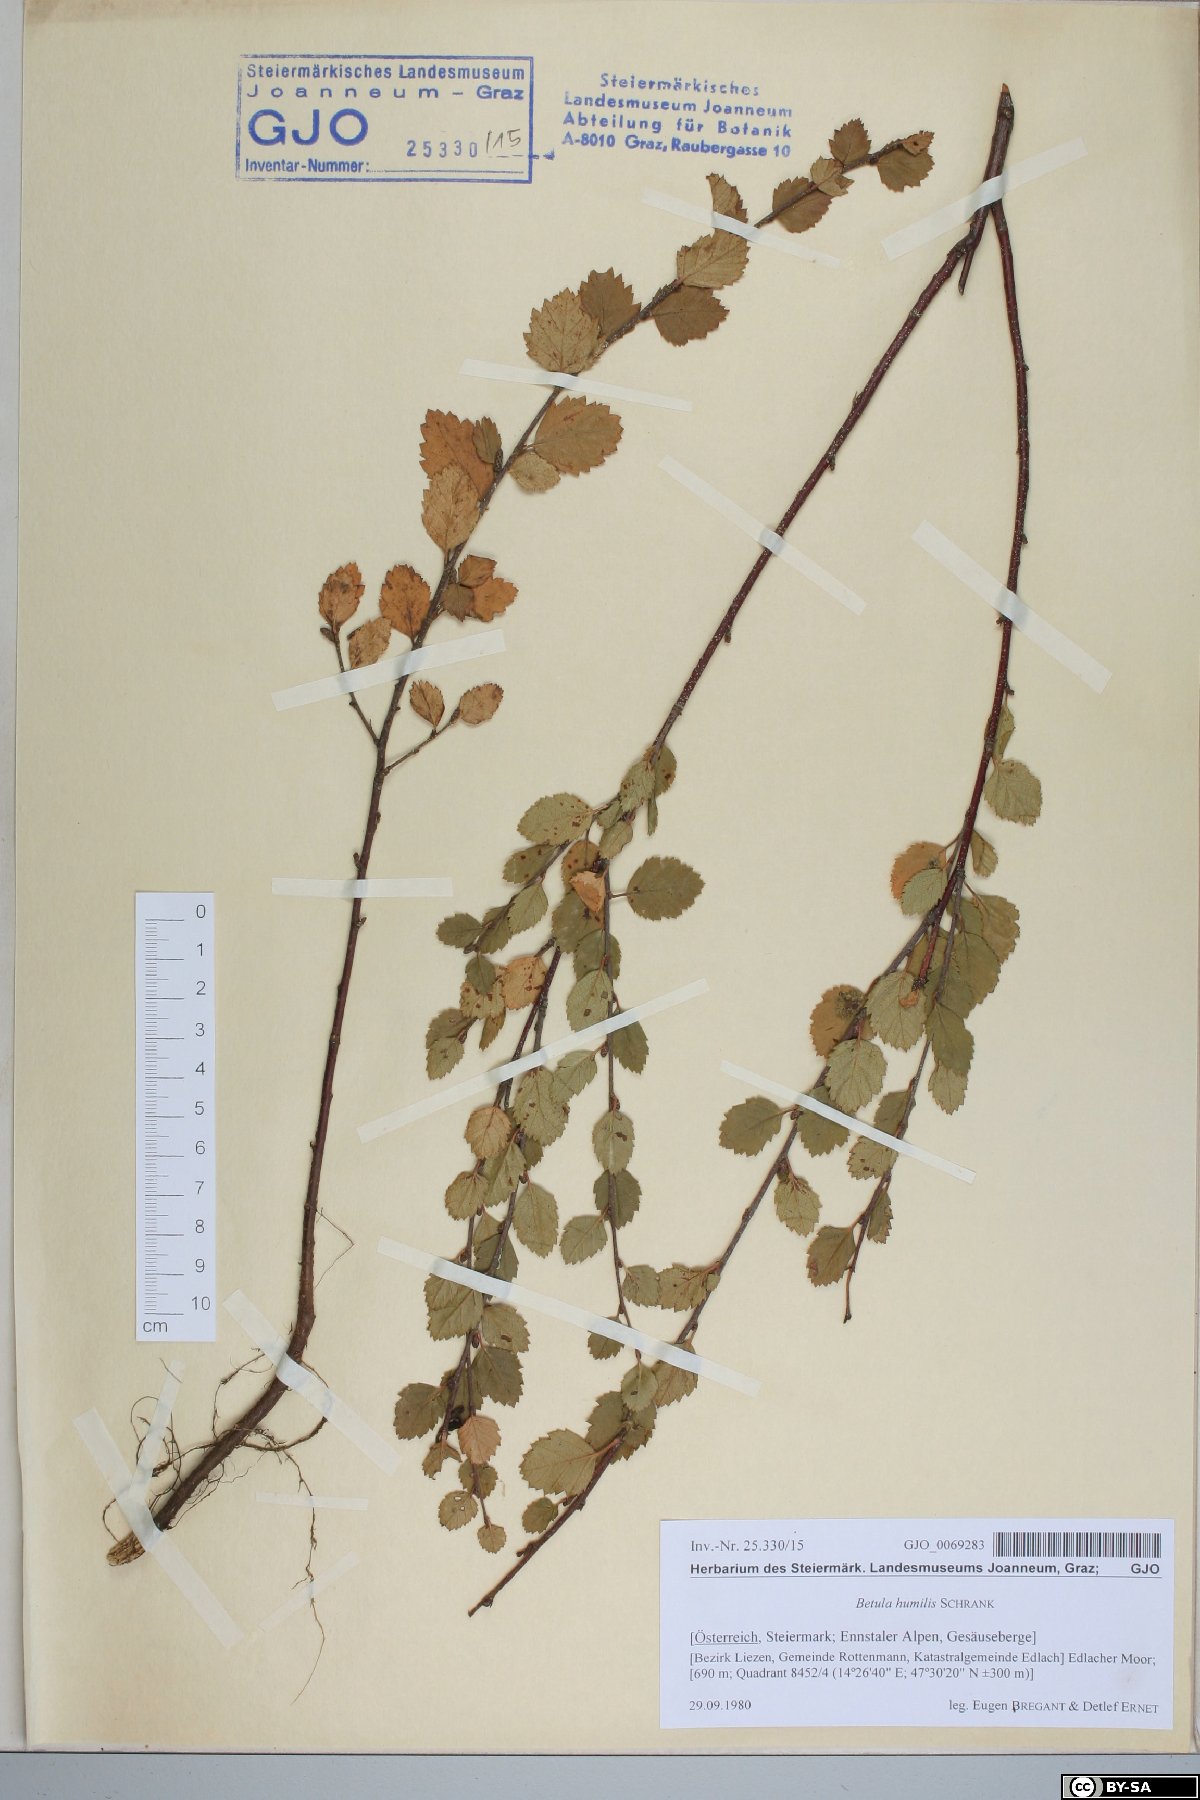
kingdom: Plantae
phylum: Tracheophyta
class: Magnoliopsida
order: Fagales
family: Betulaceae
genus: Betula
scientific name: Betula humilis
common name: Shrubby birch
